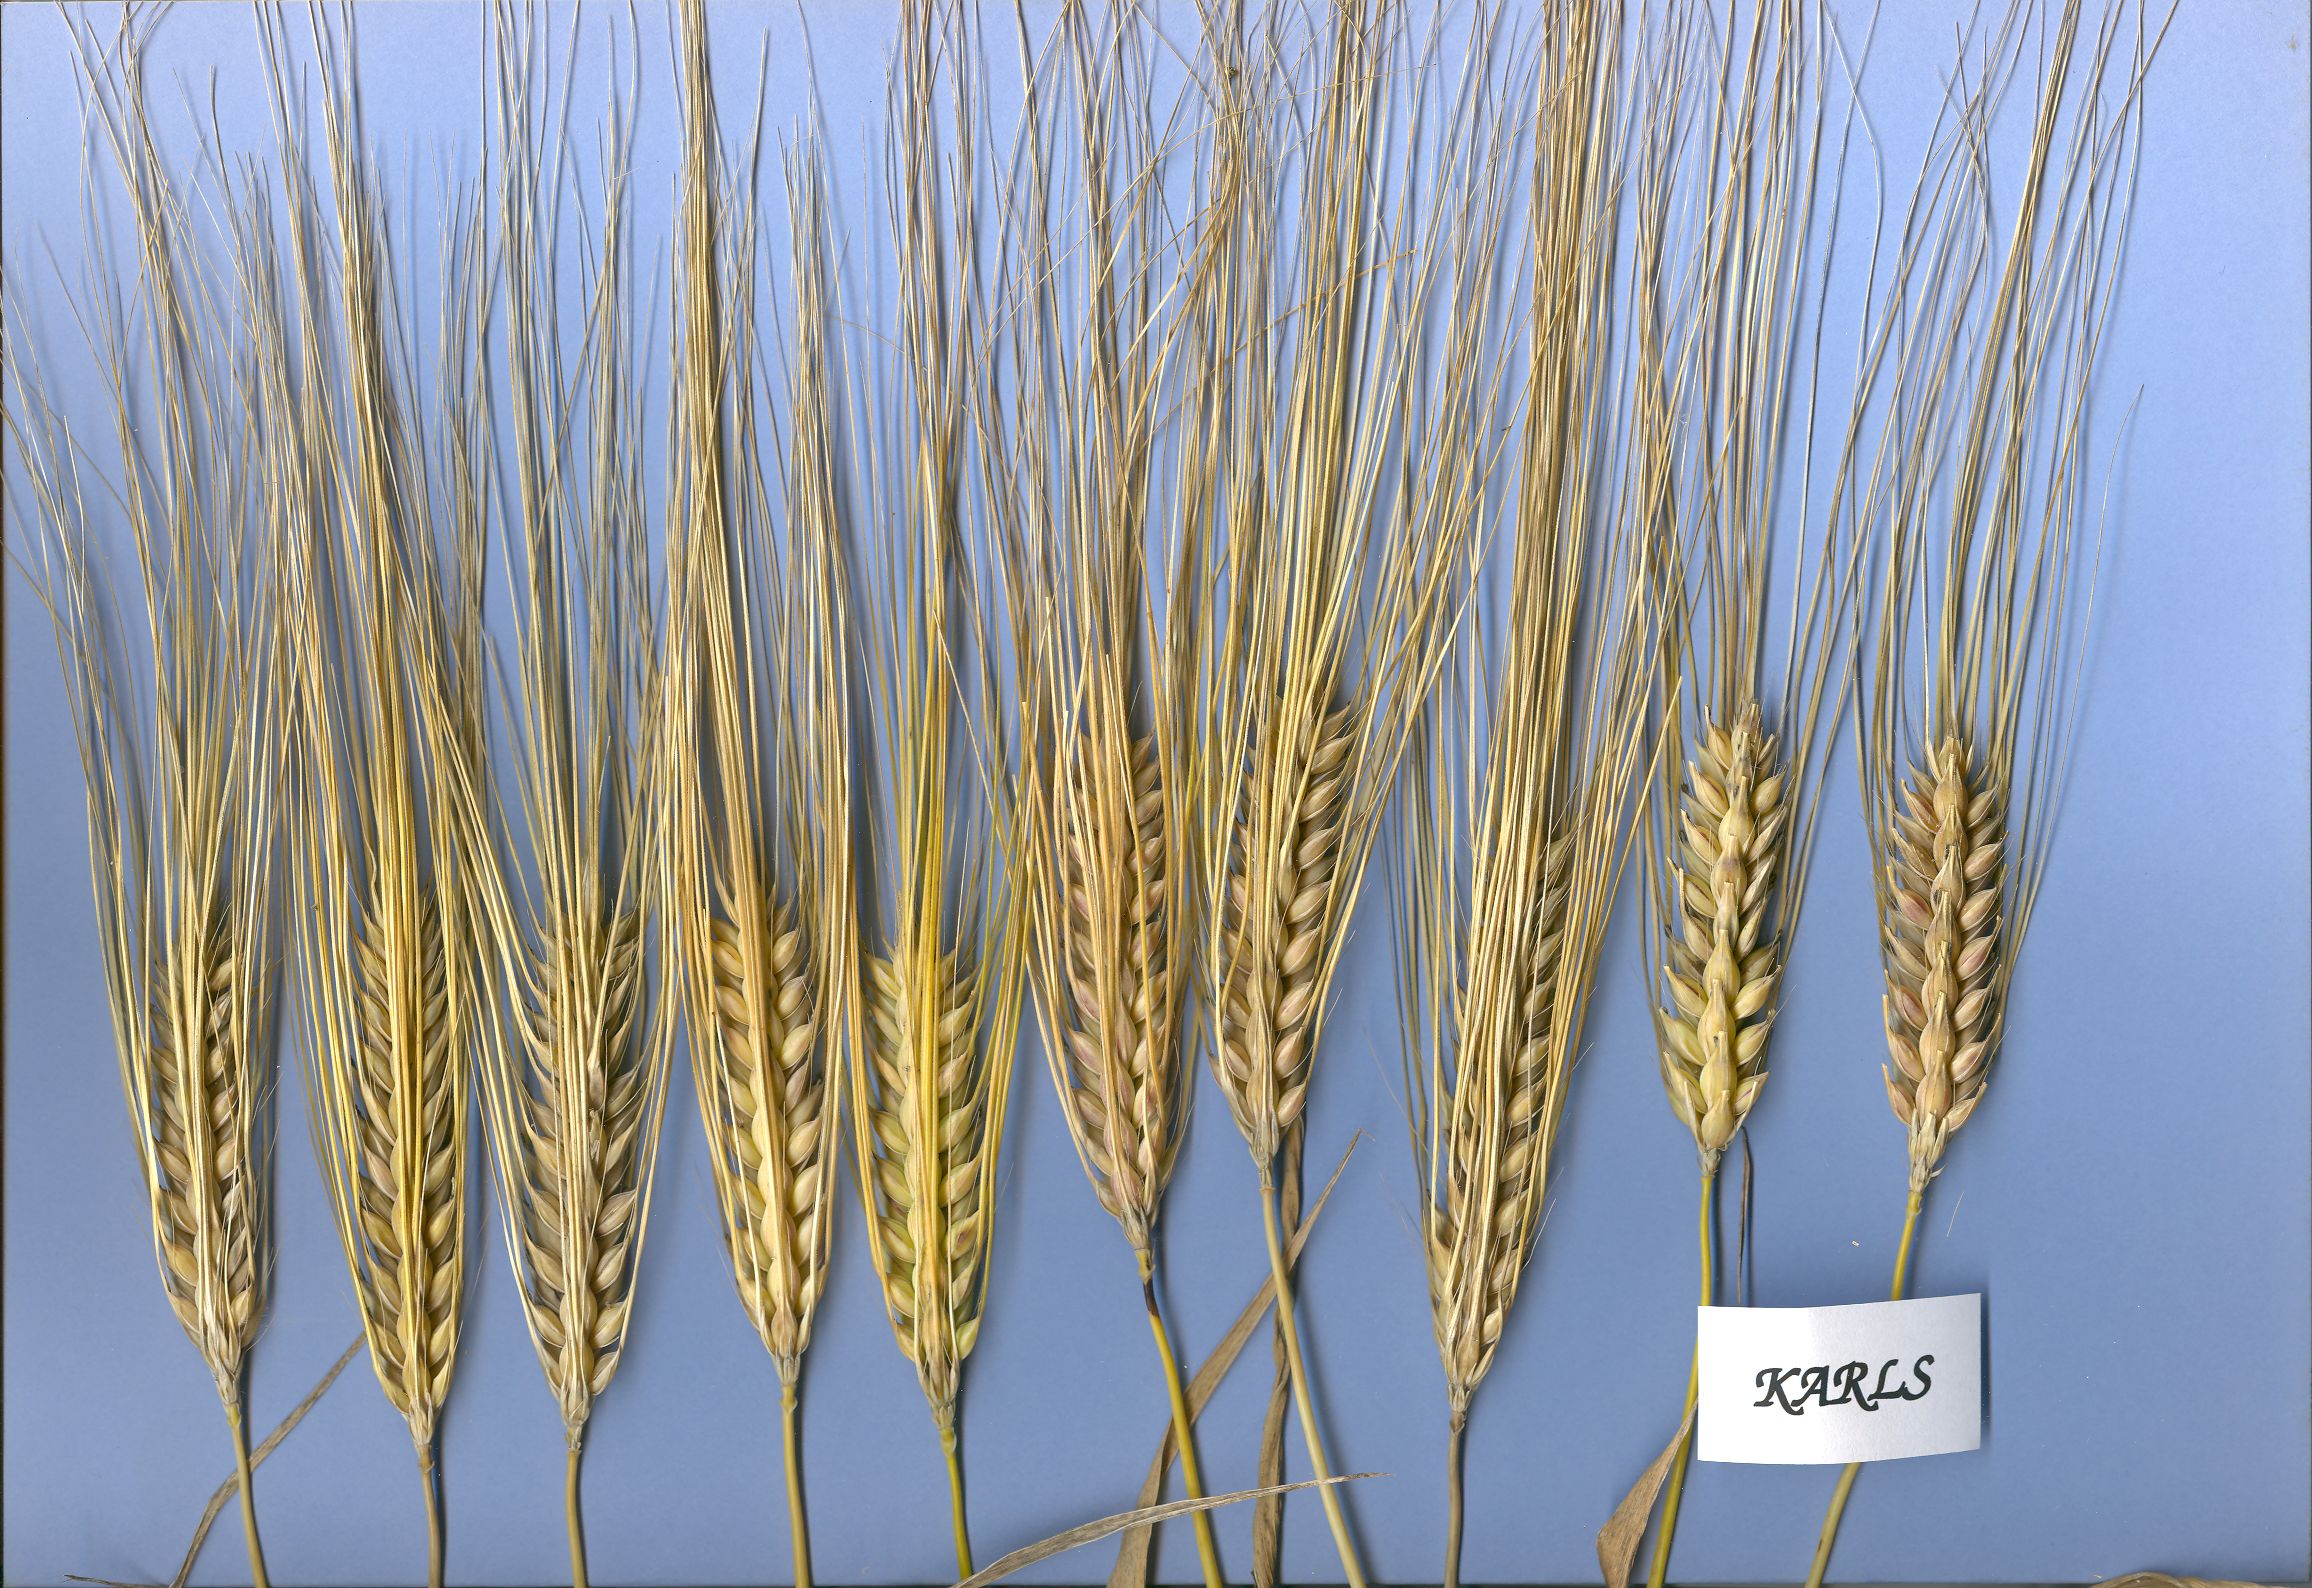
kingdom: Plantae
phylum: Tracheophyta
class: Liliopsida
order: Poales
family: Poaceae
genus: Hordeum
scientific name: Hordeum vulgare
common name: Common barley
